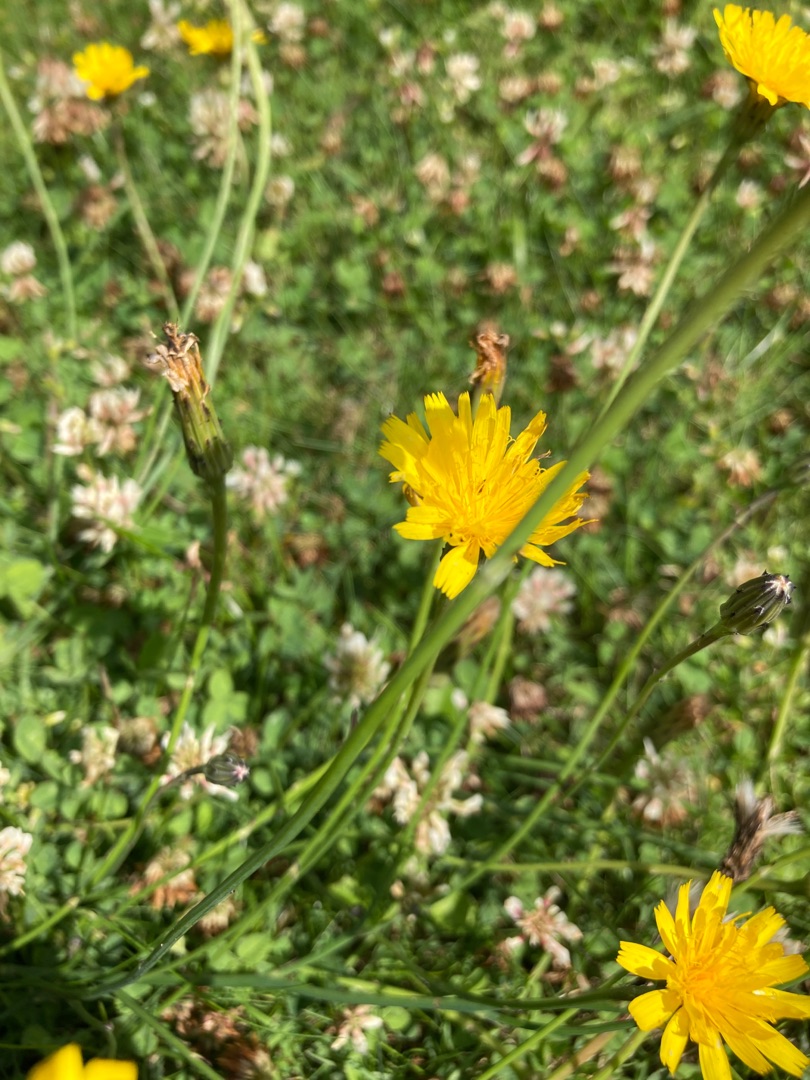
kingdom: Plantae
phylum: Tracheophyta
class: Magnoliopsida
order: Asterales
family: Asteraceae
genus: Hypochaeris
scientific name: Hypochaeris radicata
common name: Almindelig kongepen
